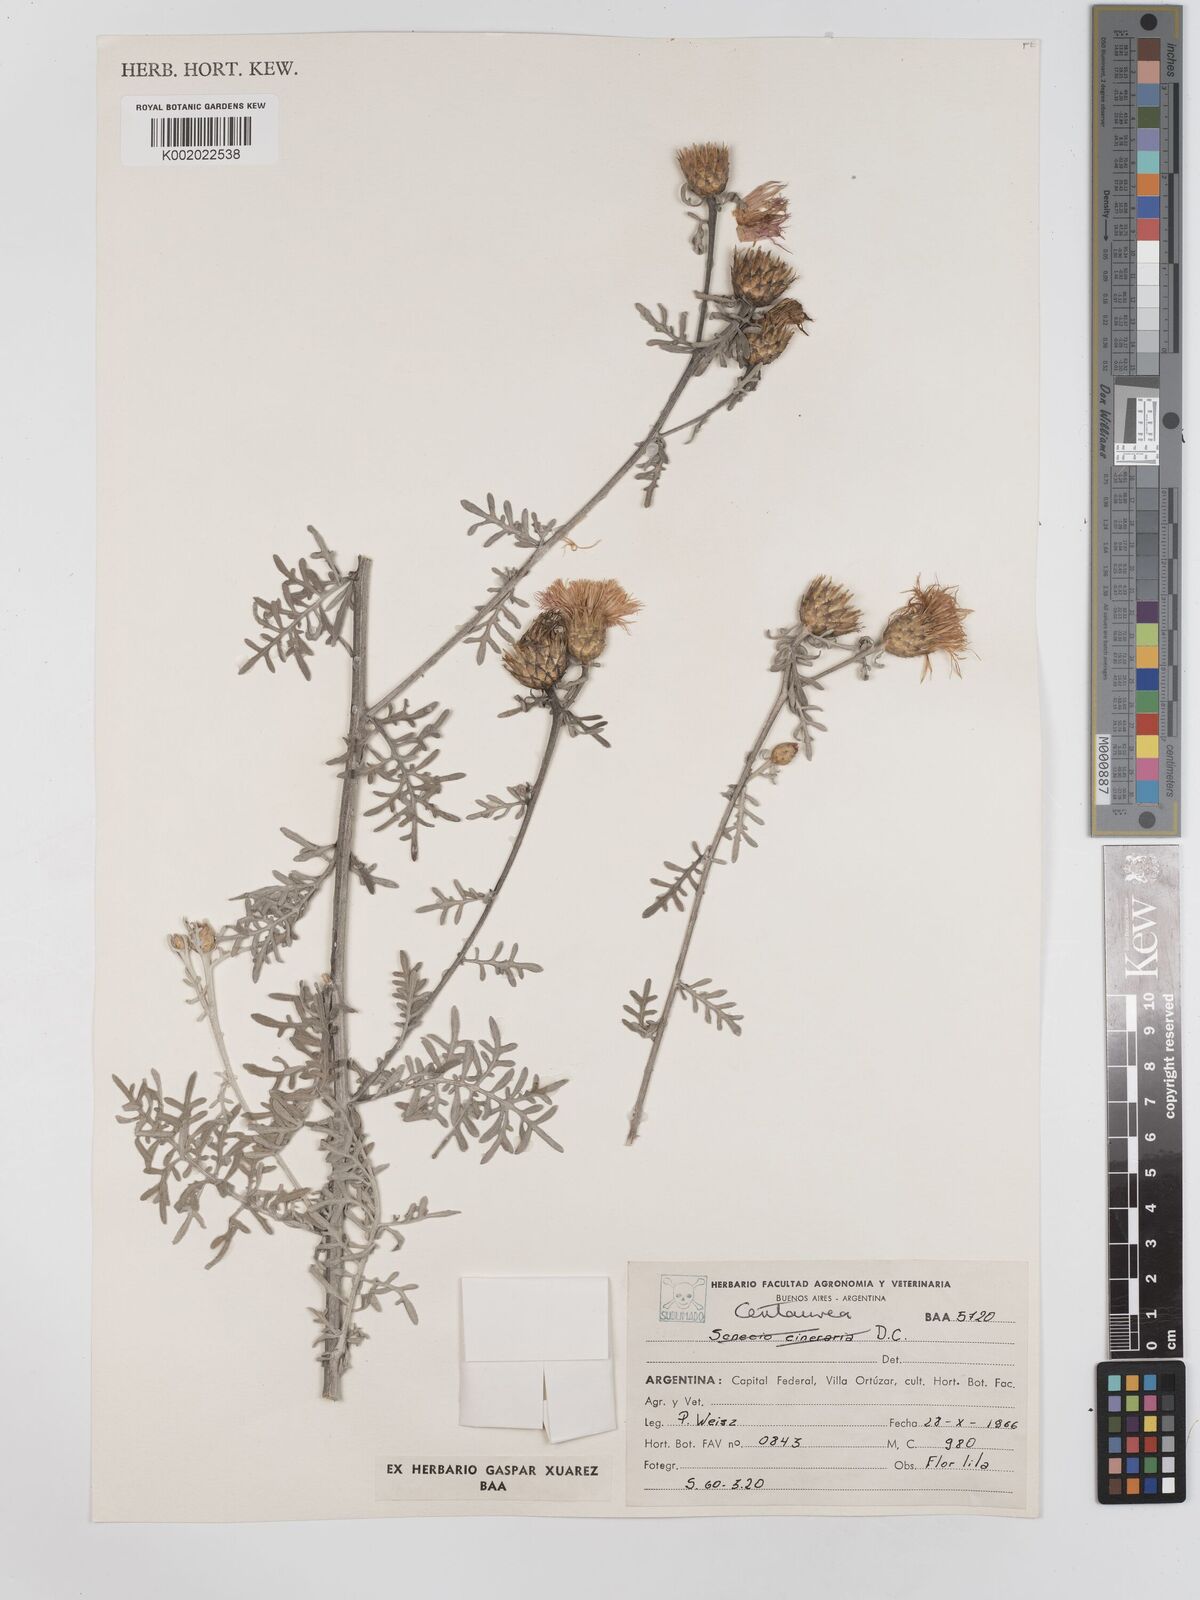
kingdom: Plantae
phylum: Tracheophyta
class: Magnoliopsida
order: Asterales
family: Asteraceae
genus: Centaurea
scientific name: Centaurea
